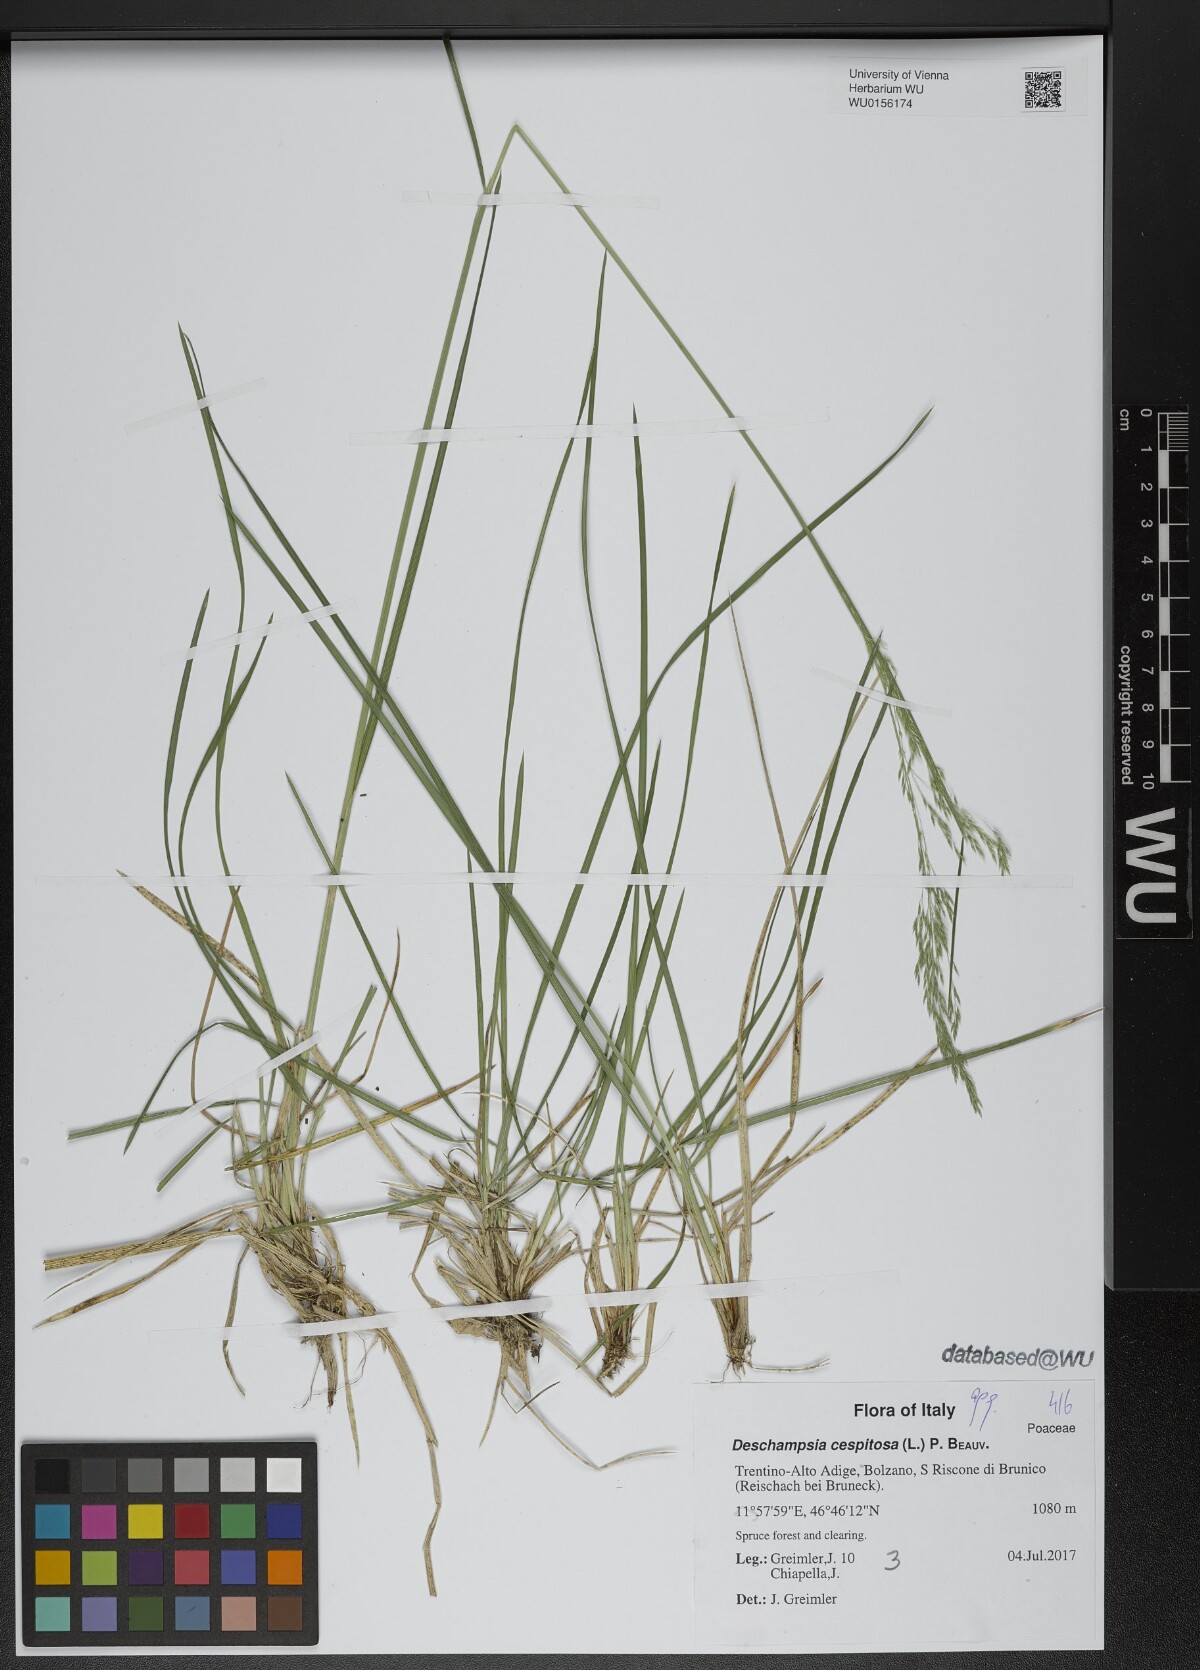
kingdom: Plantae
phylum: Tracheophyta
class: Liliopsida
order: Poales
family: Poaceae
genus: Deschampsia
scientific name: Deschampsia cespitosa
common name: Tufted hair-grass
